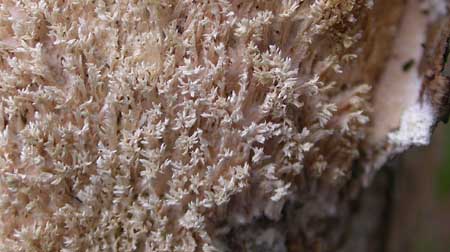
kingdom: Fungi
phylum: Basidiomycota
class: Agaricomycetes
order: Hymenochaetales
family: Schizoporaceae
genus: Schizopora
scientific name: Schizopora paradoxa
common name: hvid tandsvamp
